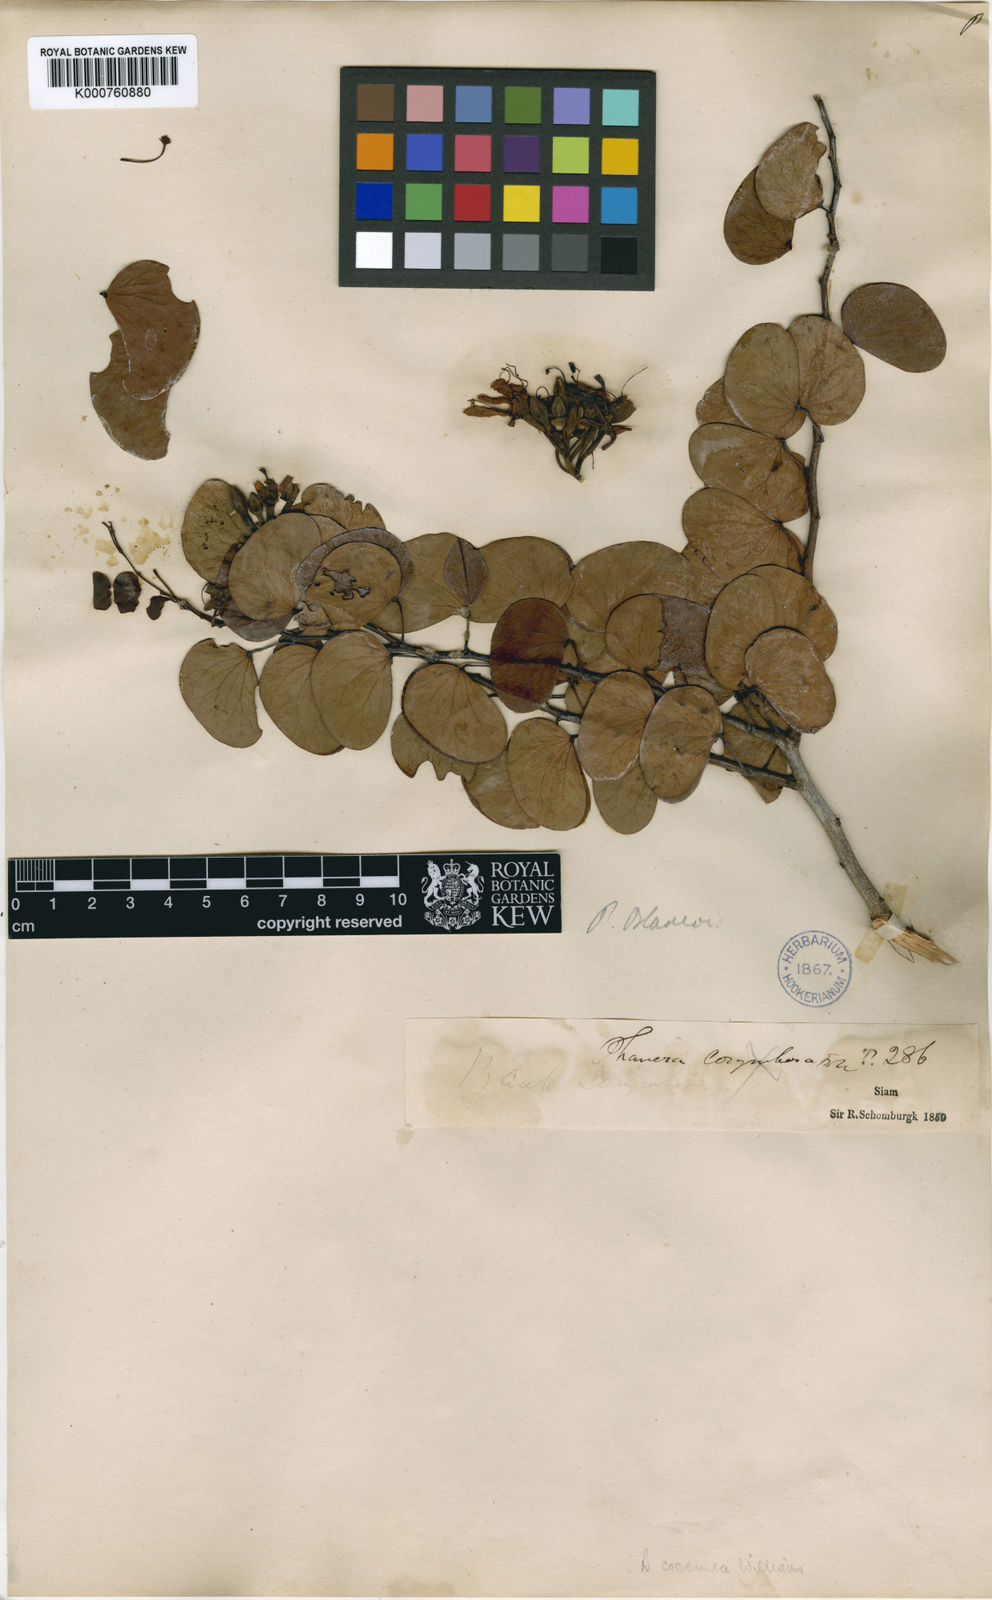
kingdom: Plantae
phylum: Tracheophyta
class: Magnoliopsida
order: Fabales
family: Fabaceae
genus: Lysiphyllum
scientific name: Lysiphyllum binatum
